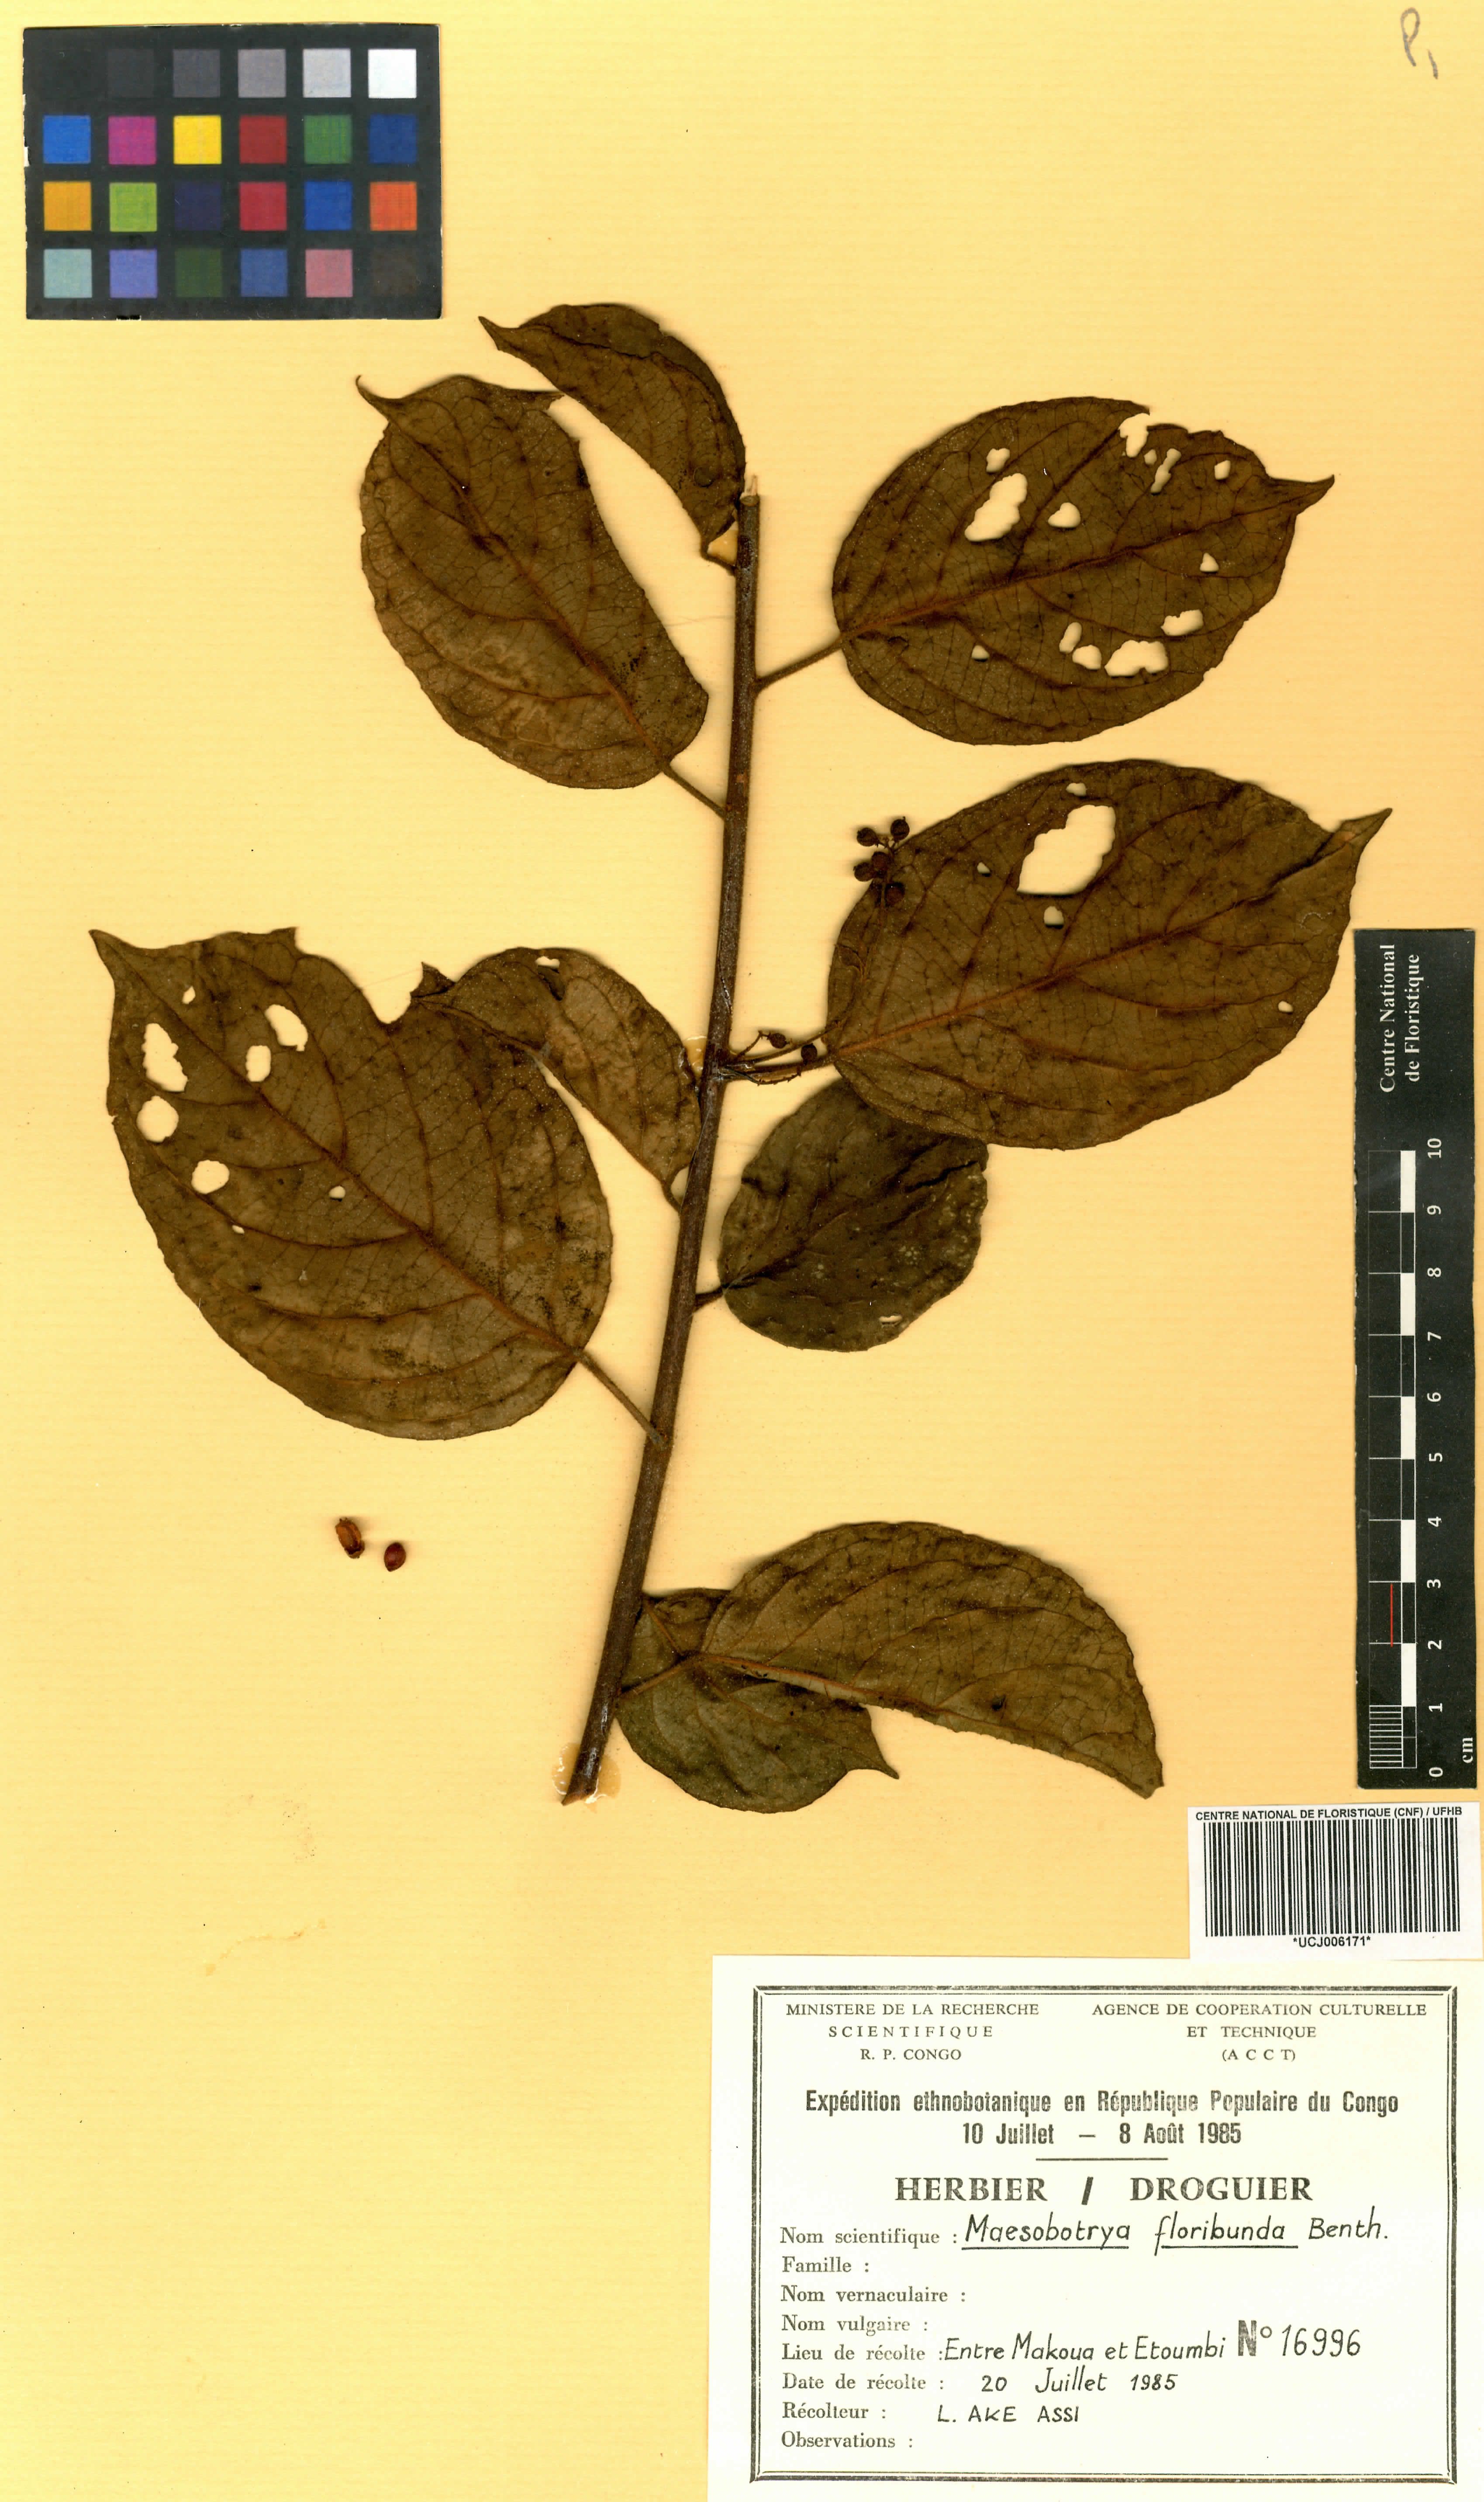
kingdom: Plantae
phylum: Tracheophyta
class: Magnoliopsida
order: Malpighiales
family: Phyllanthaceae
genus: Maesobotrya
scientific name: Maesobotrya floribunda
